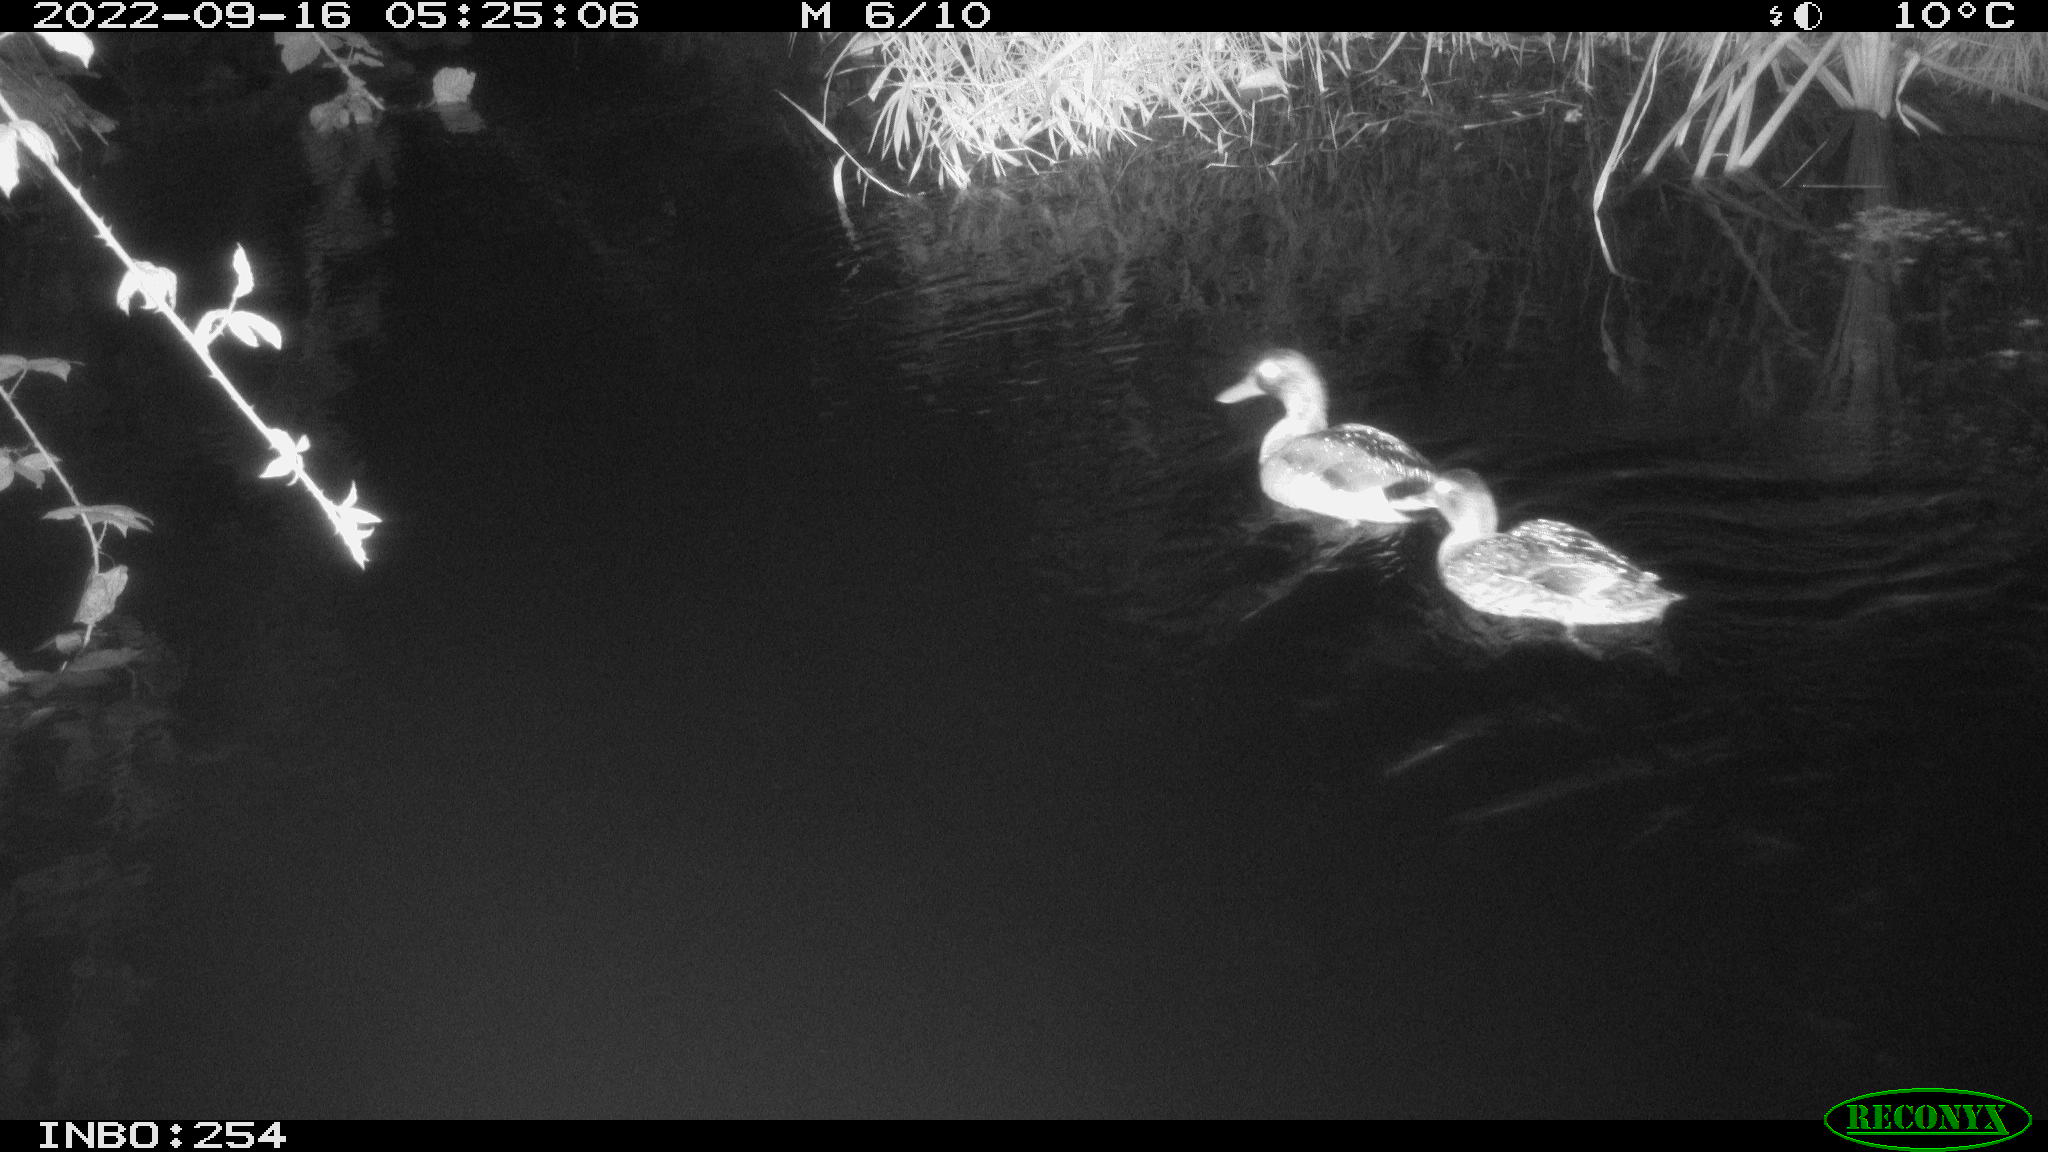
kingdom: Animalia
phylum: Chordata
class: Aves
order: Anseriformes
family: Anatidae
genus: Anas
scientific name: Anas
